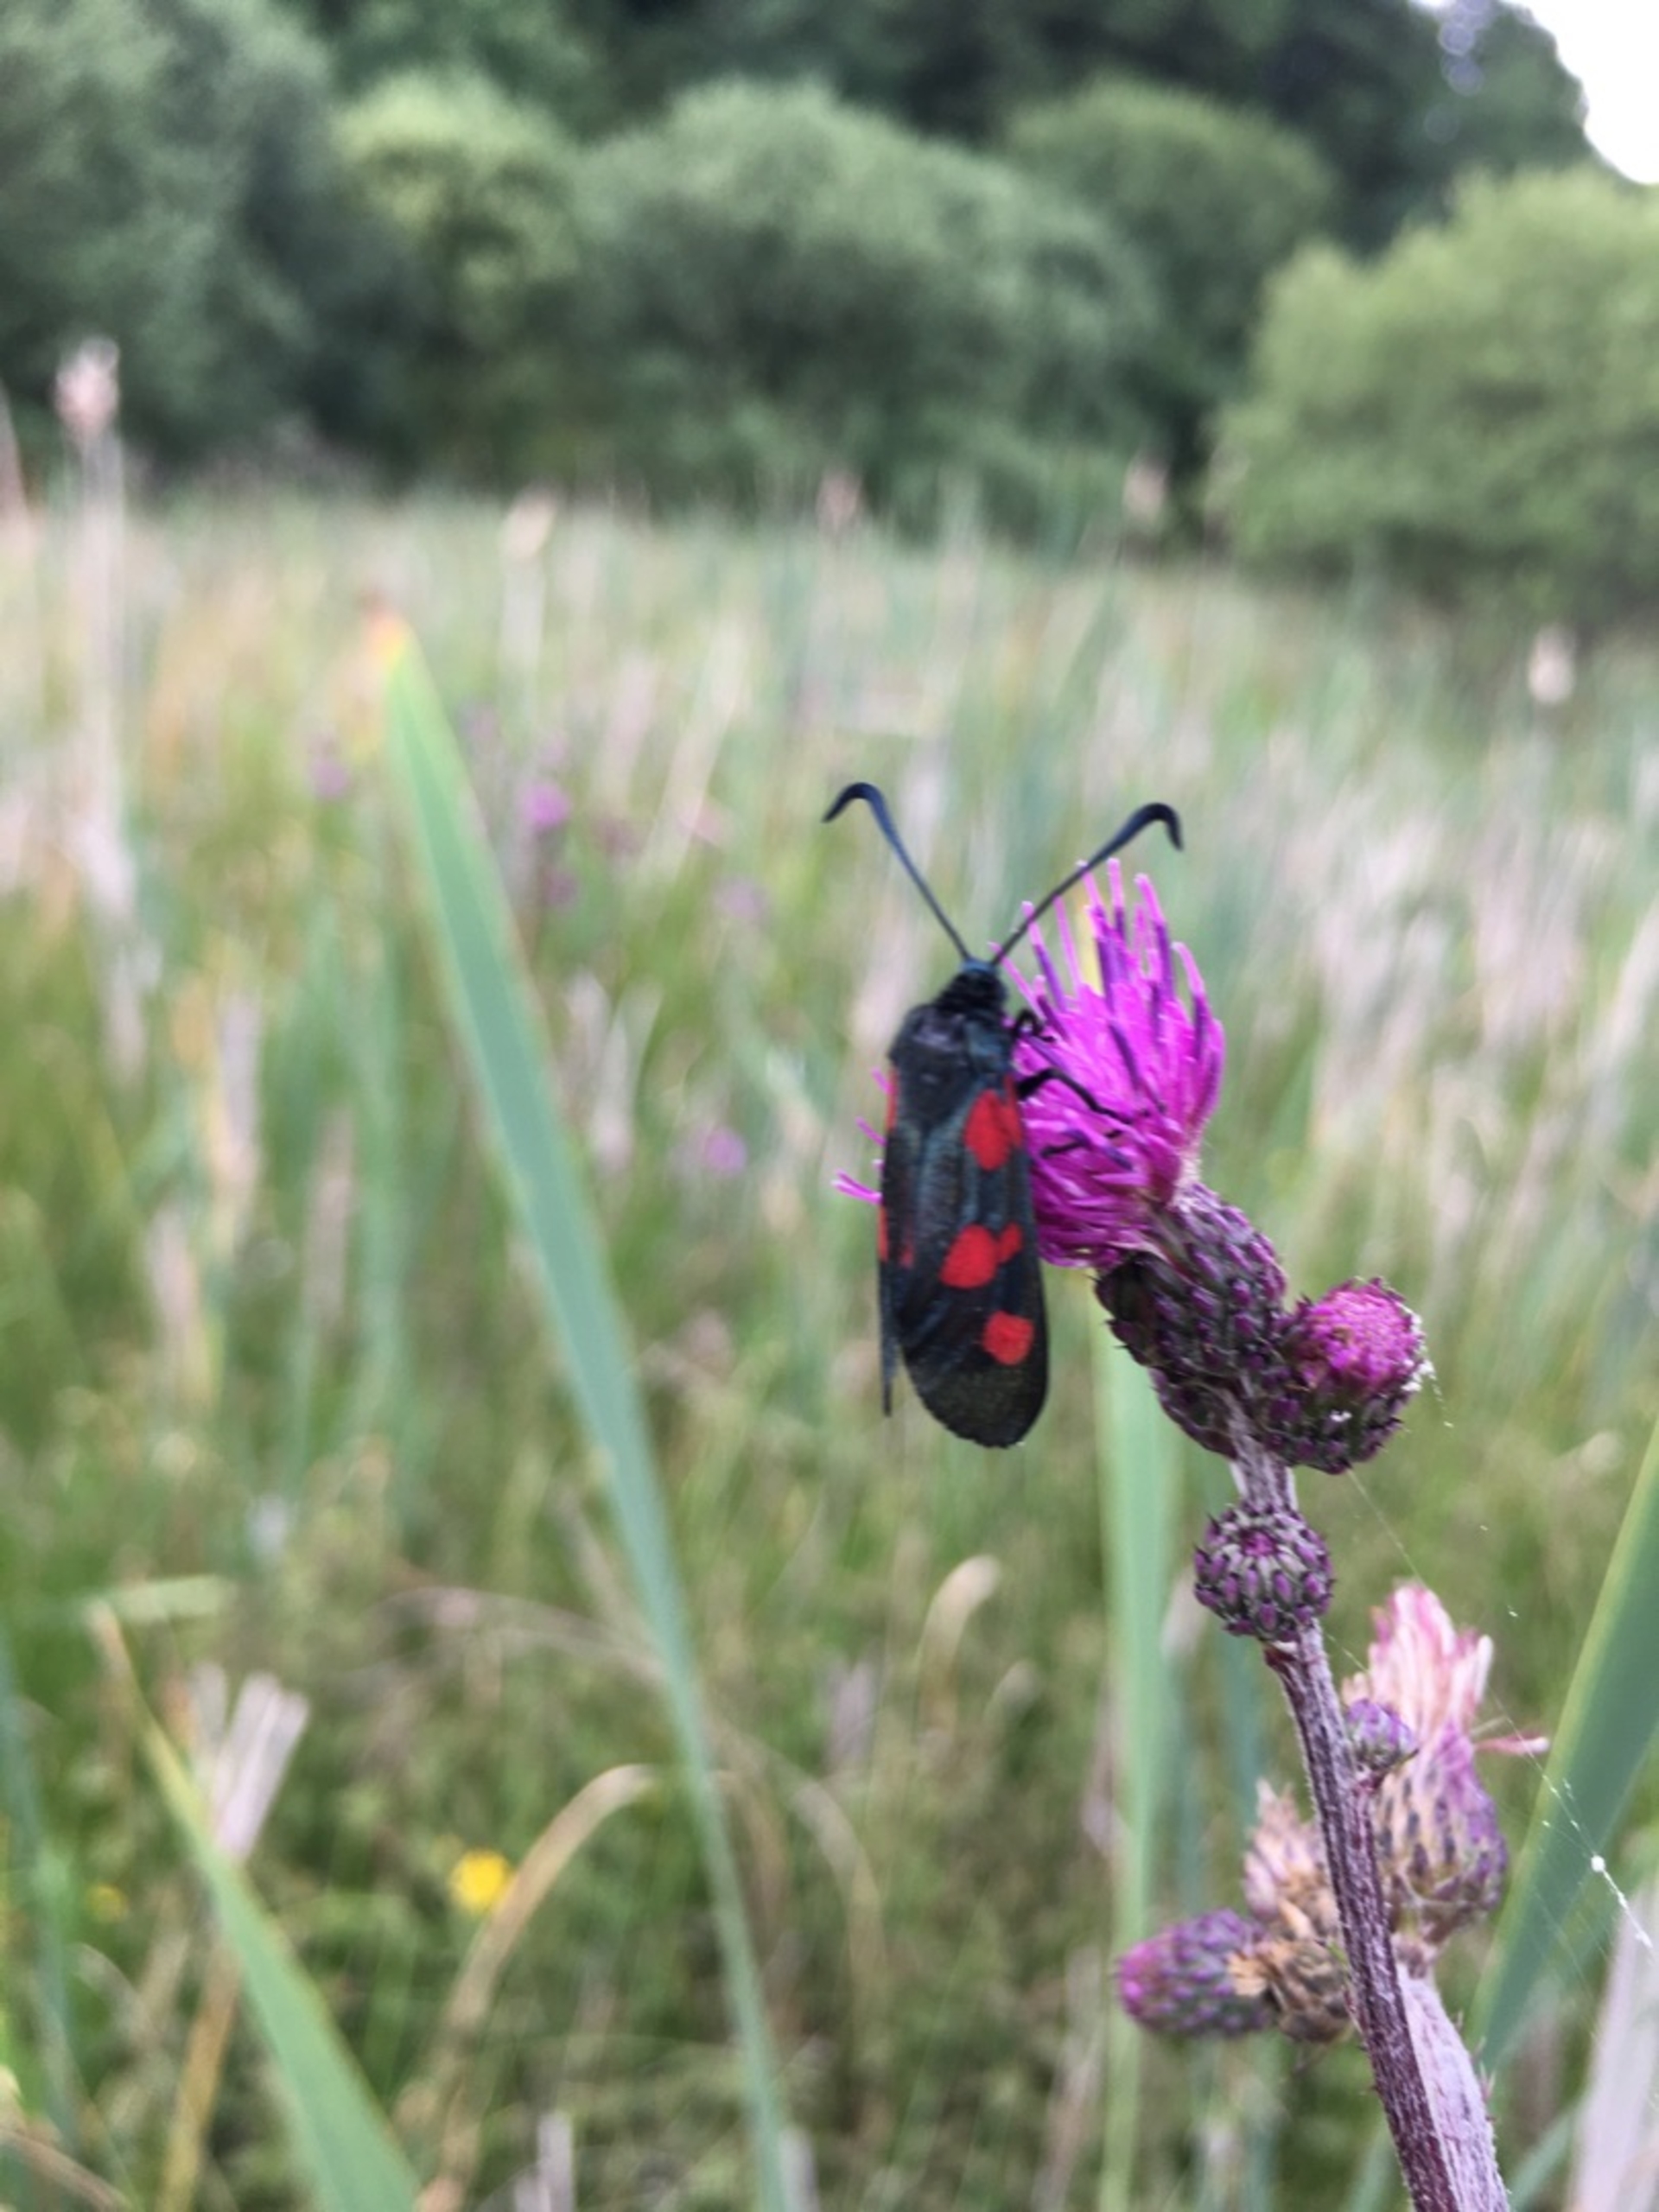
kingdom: Animalia
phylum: Arthropoda
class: Insecta
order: Lepidoptera
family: Zygaenidae
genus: Zygaena
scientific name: Zygaena lonicerae
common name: Femplettet køllesværmer
